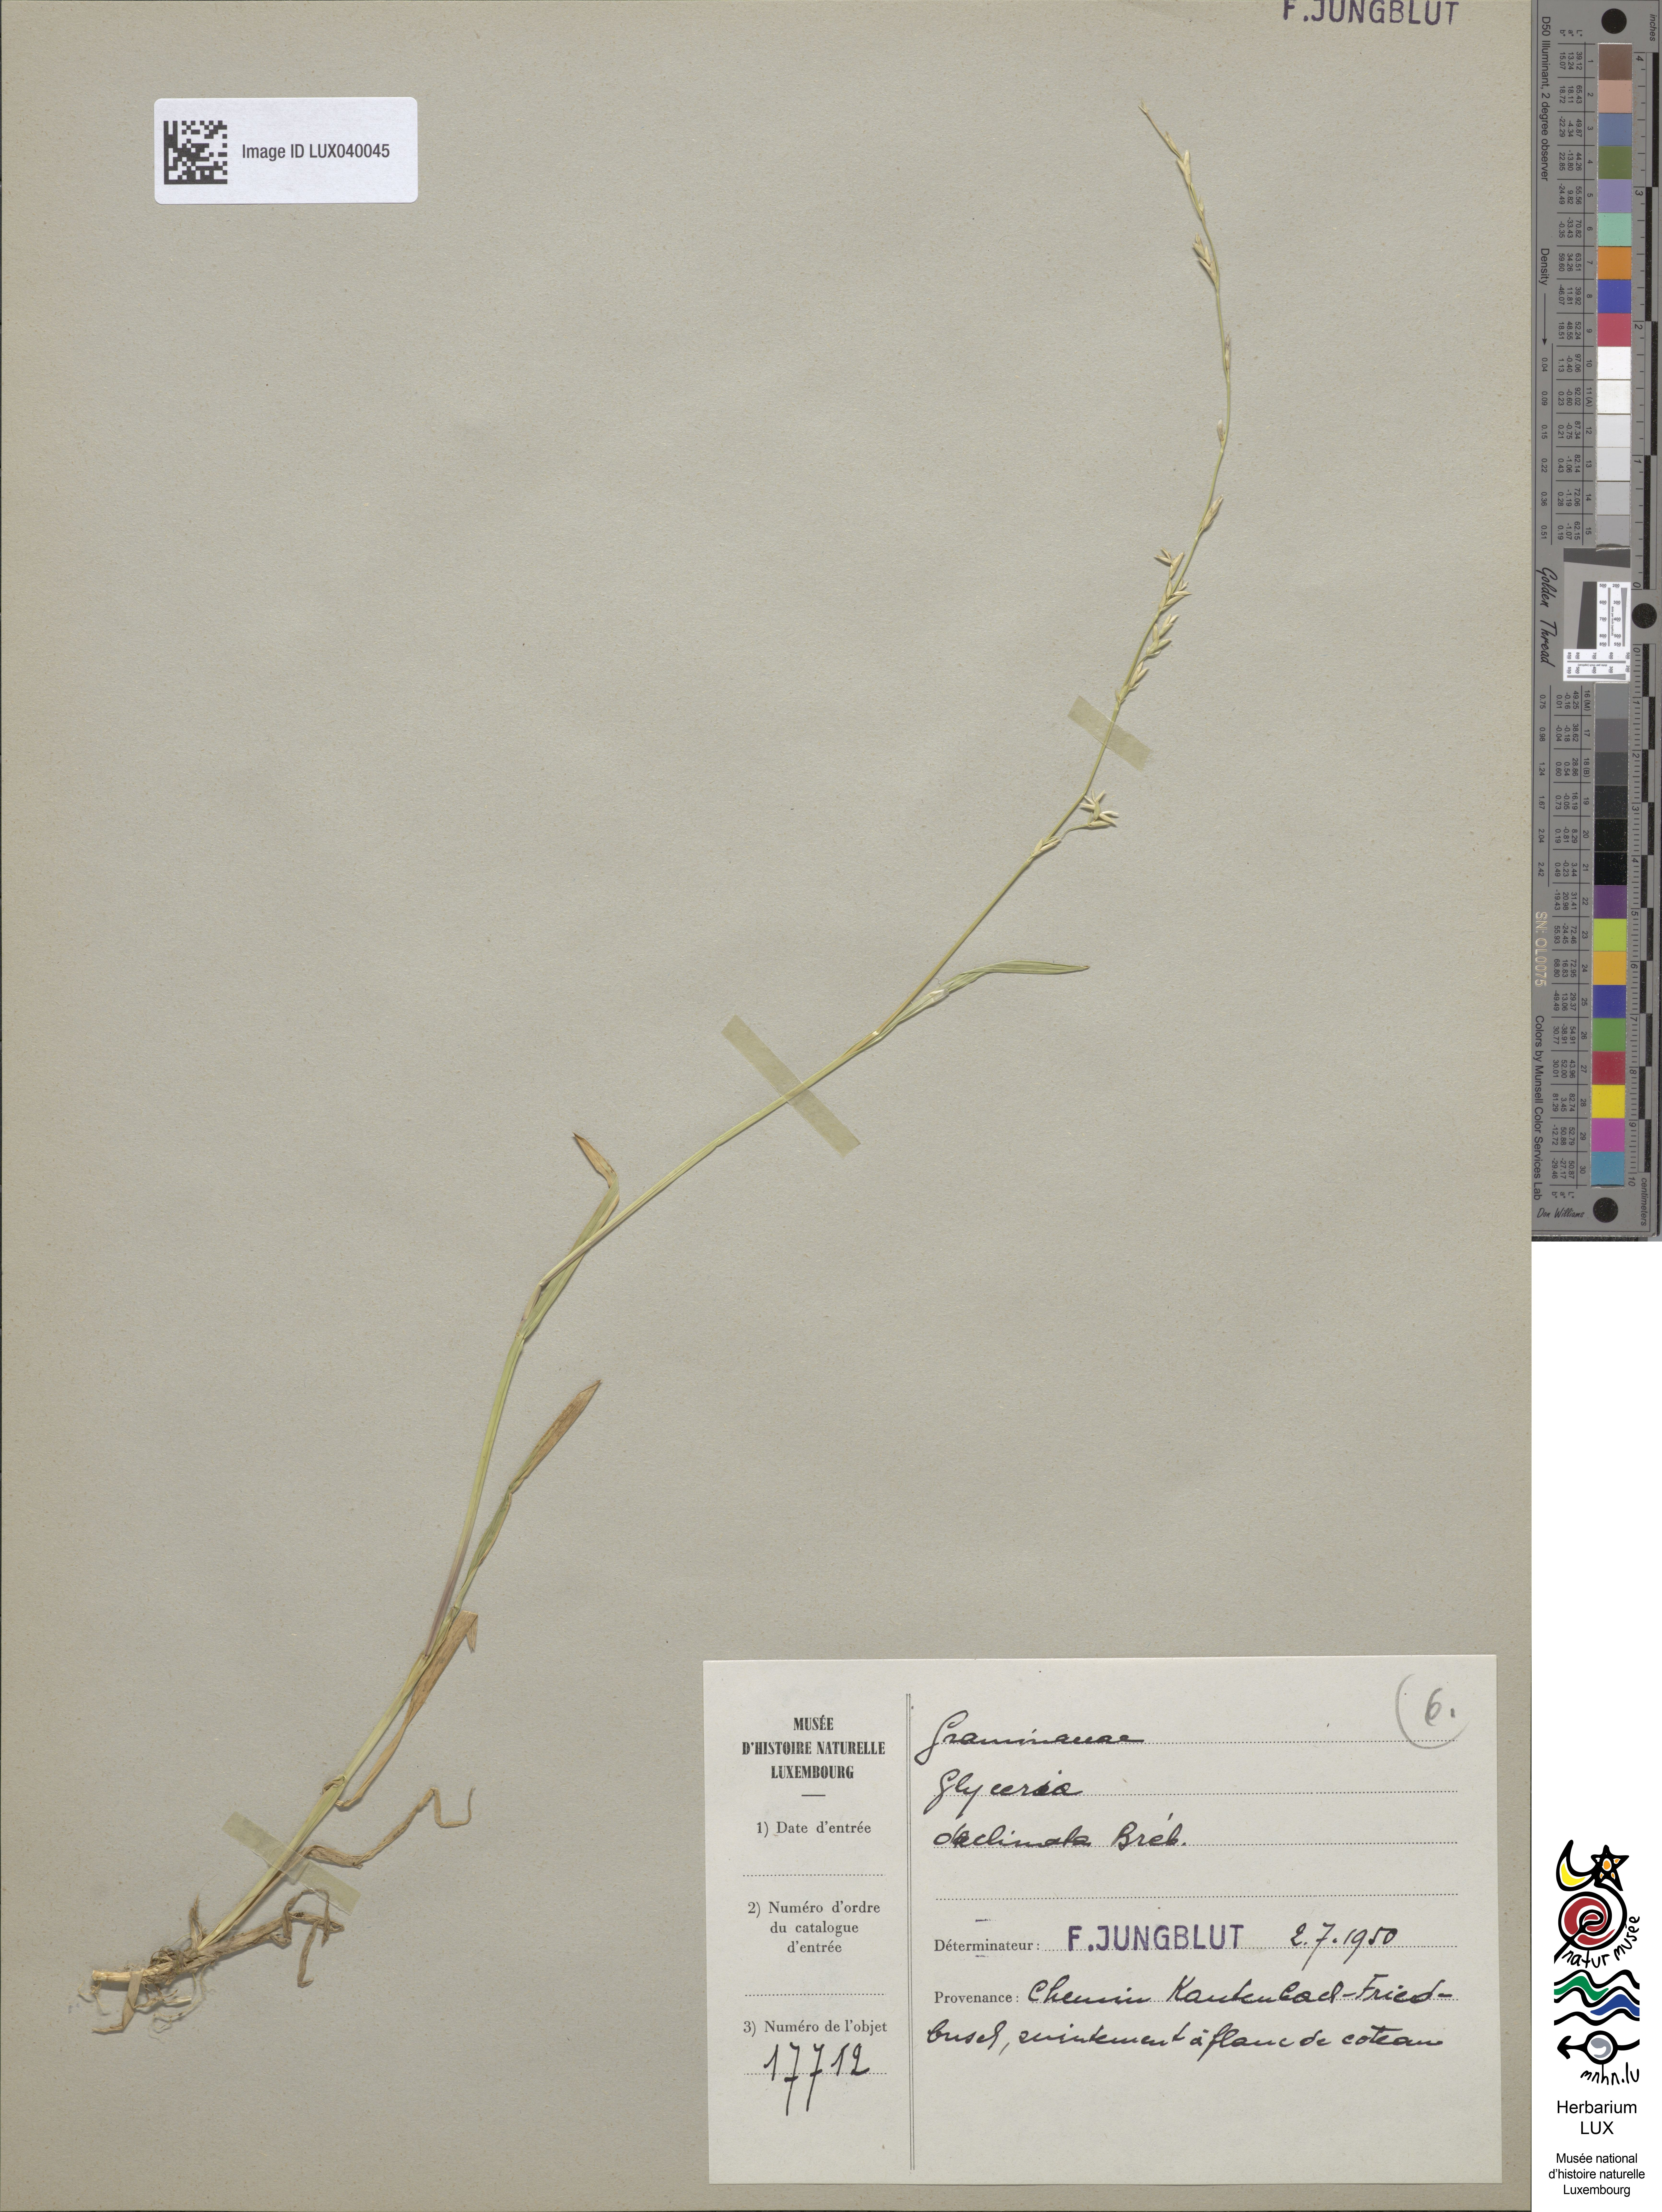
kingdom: Plantae
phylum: Tracheophyta
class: Liliopsida
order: Poales
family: Poaceae
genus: Glyceria
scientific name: Glyceria declinata
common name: Small sweet-grass
